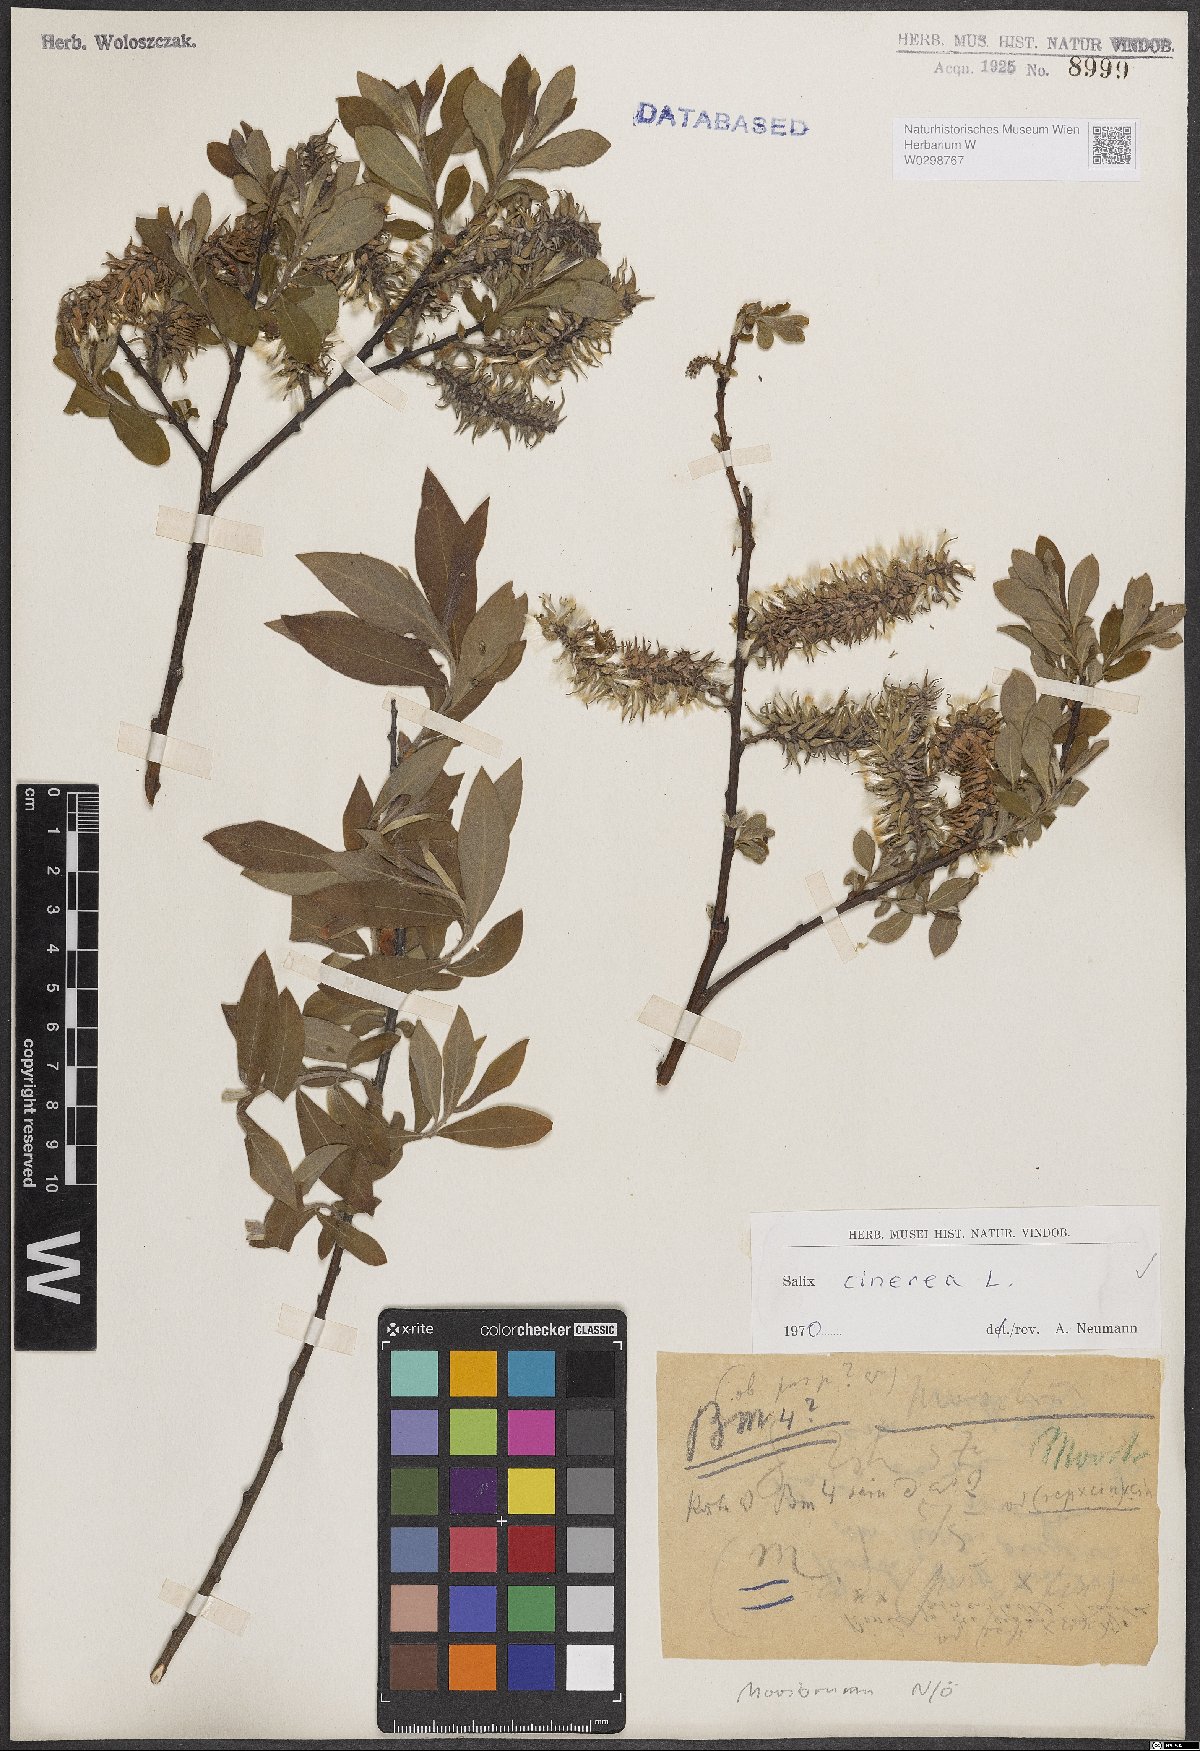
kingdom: Plantae
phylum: Tracheophyta
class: Magnoliopsida
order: Malpighiales
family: Salicaceae
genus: Salix
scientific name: Salix cinerea
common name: Common sallow
